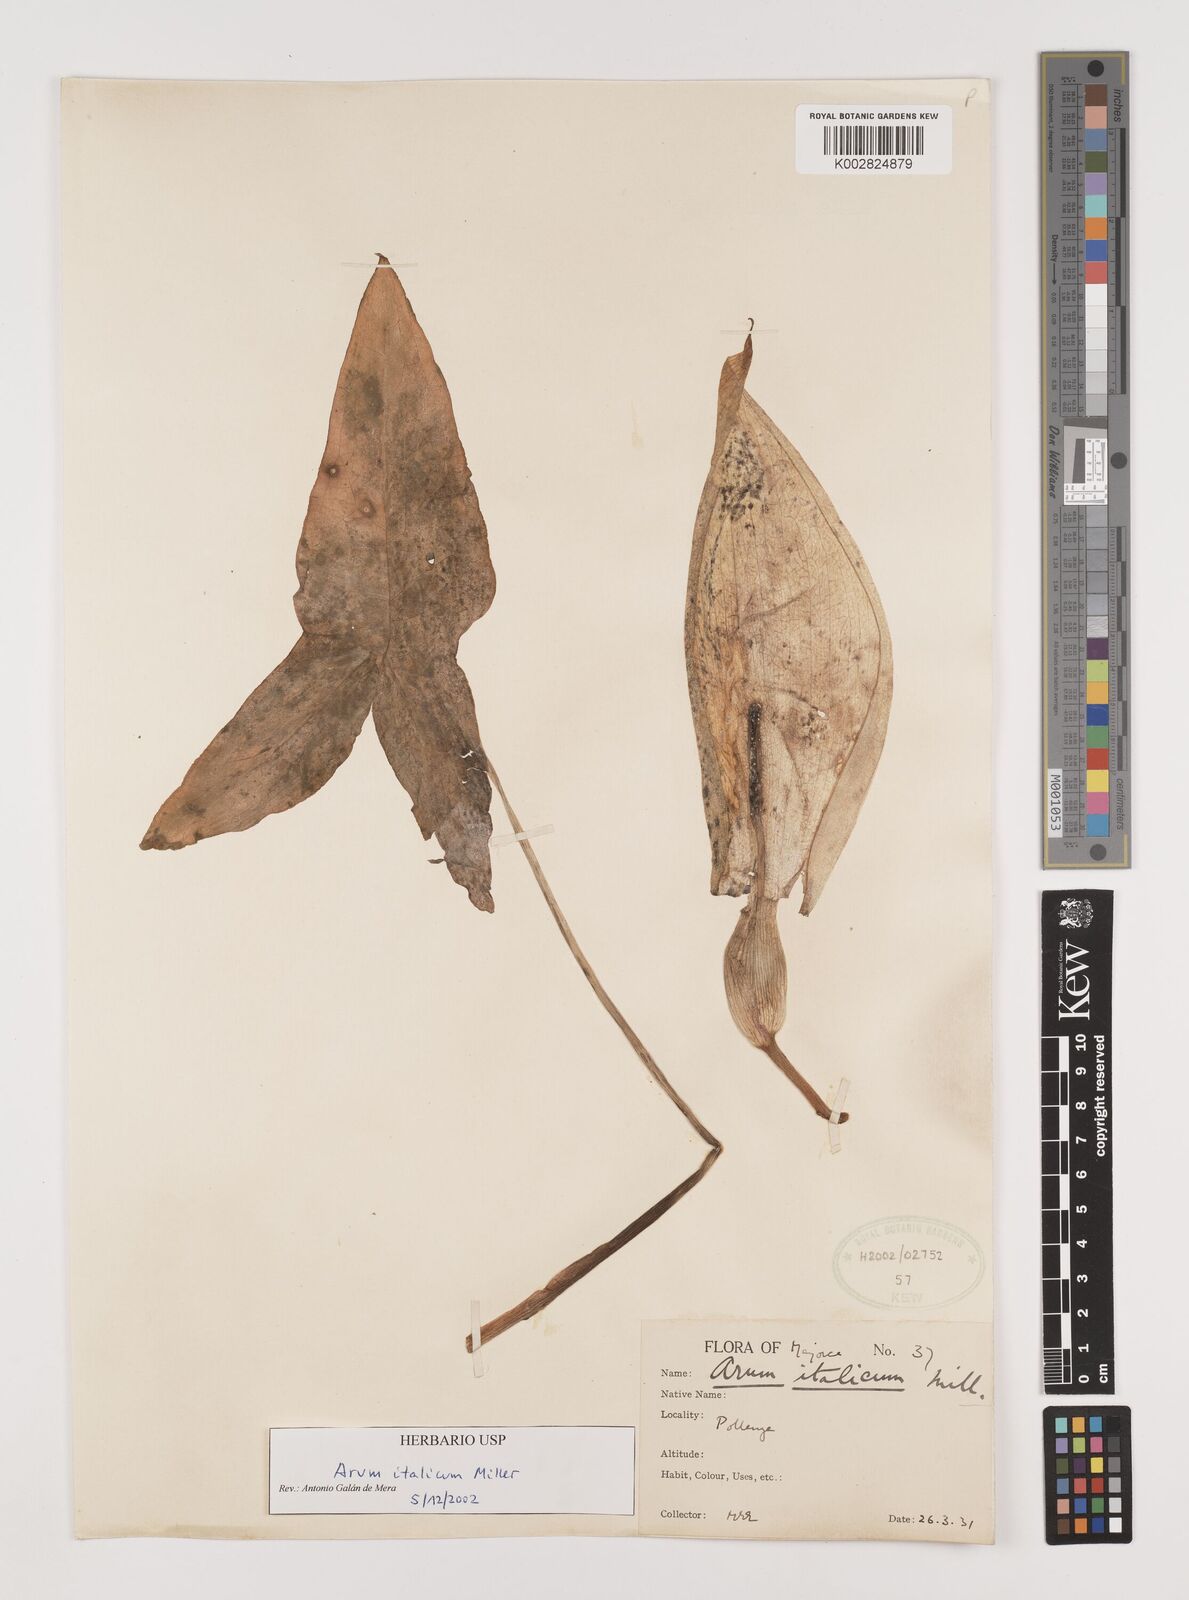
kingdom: Plantae
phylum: Tracheophyta
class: Liliopsida
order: Alismatales
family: Araceae
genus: Arum
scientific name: Arum italicum
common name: Italian lords-and-ladies
